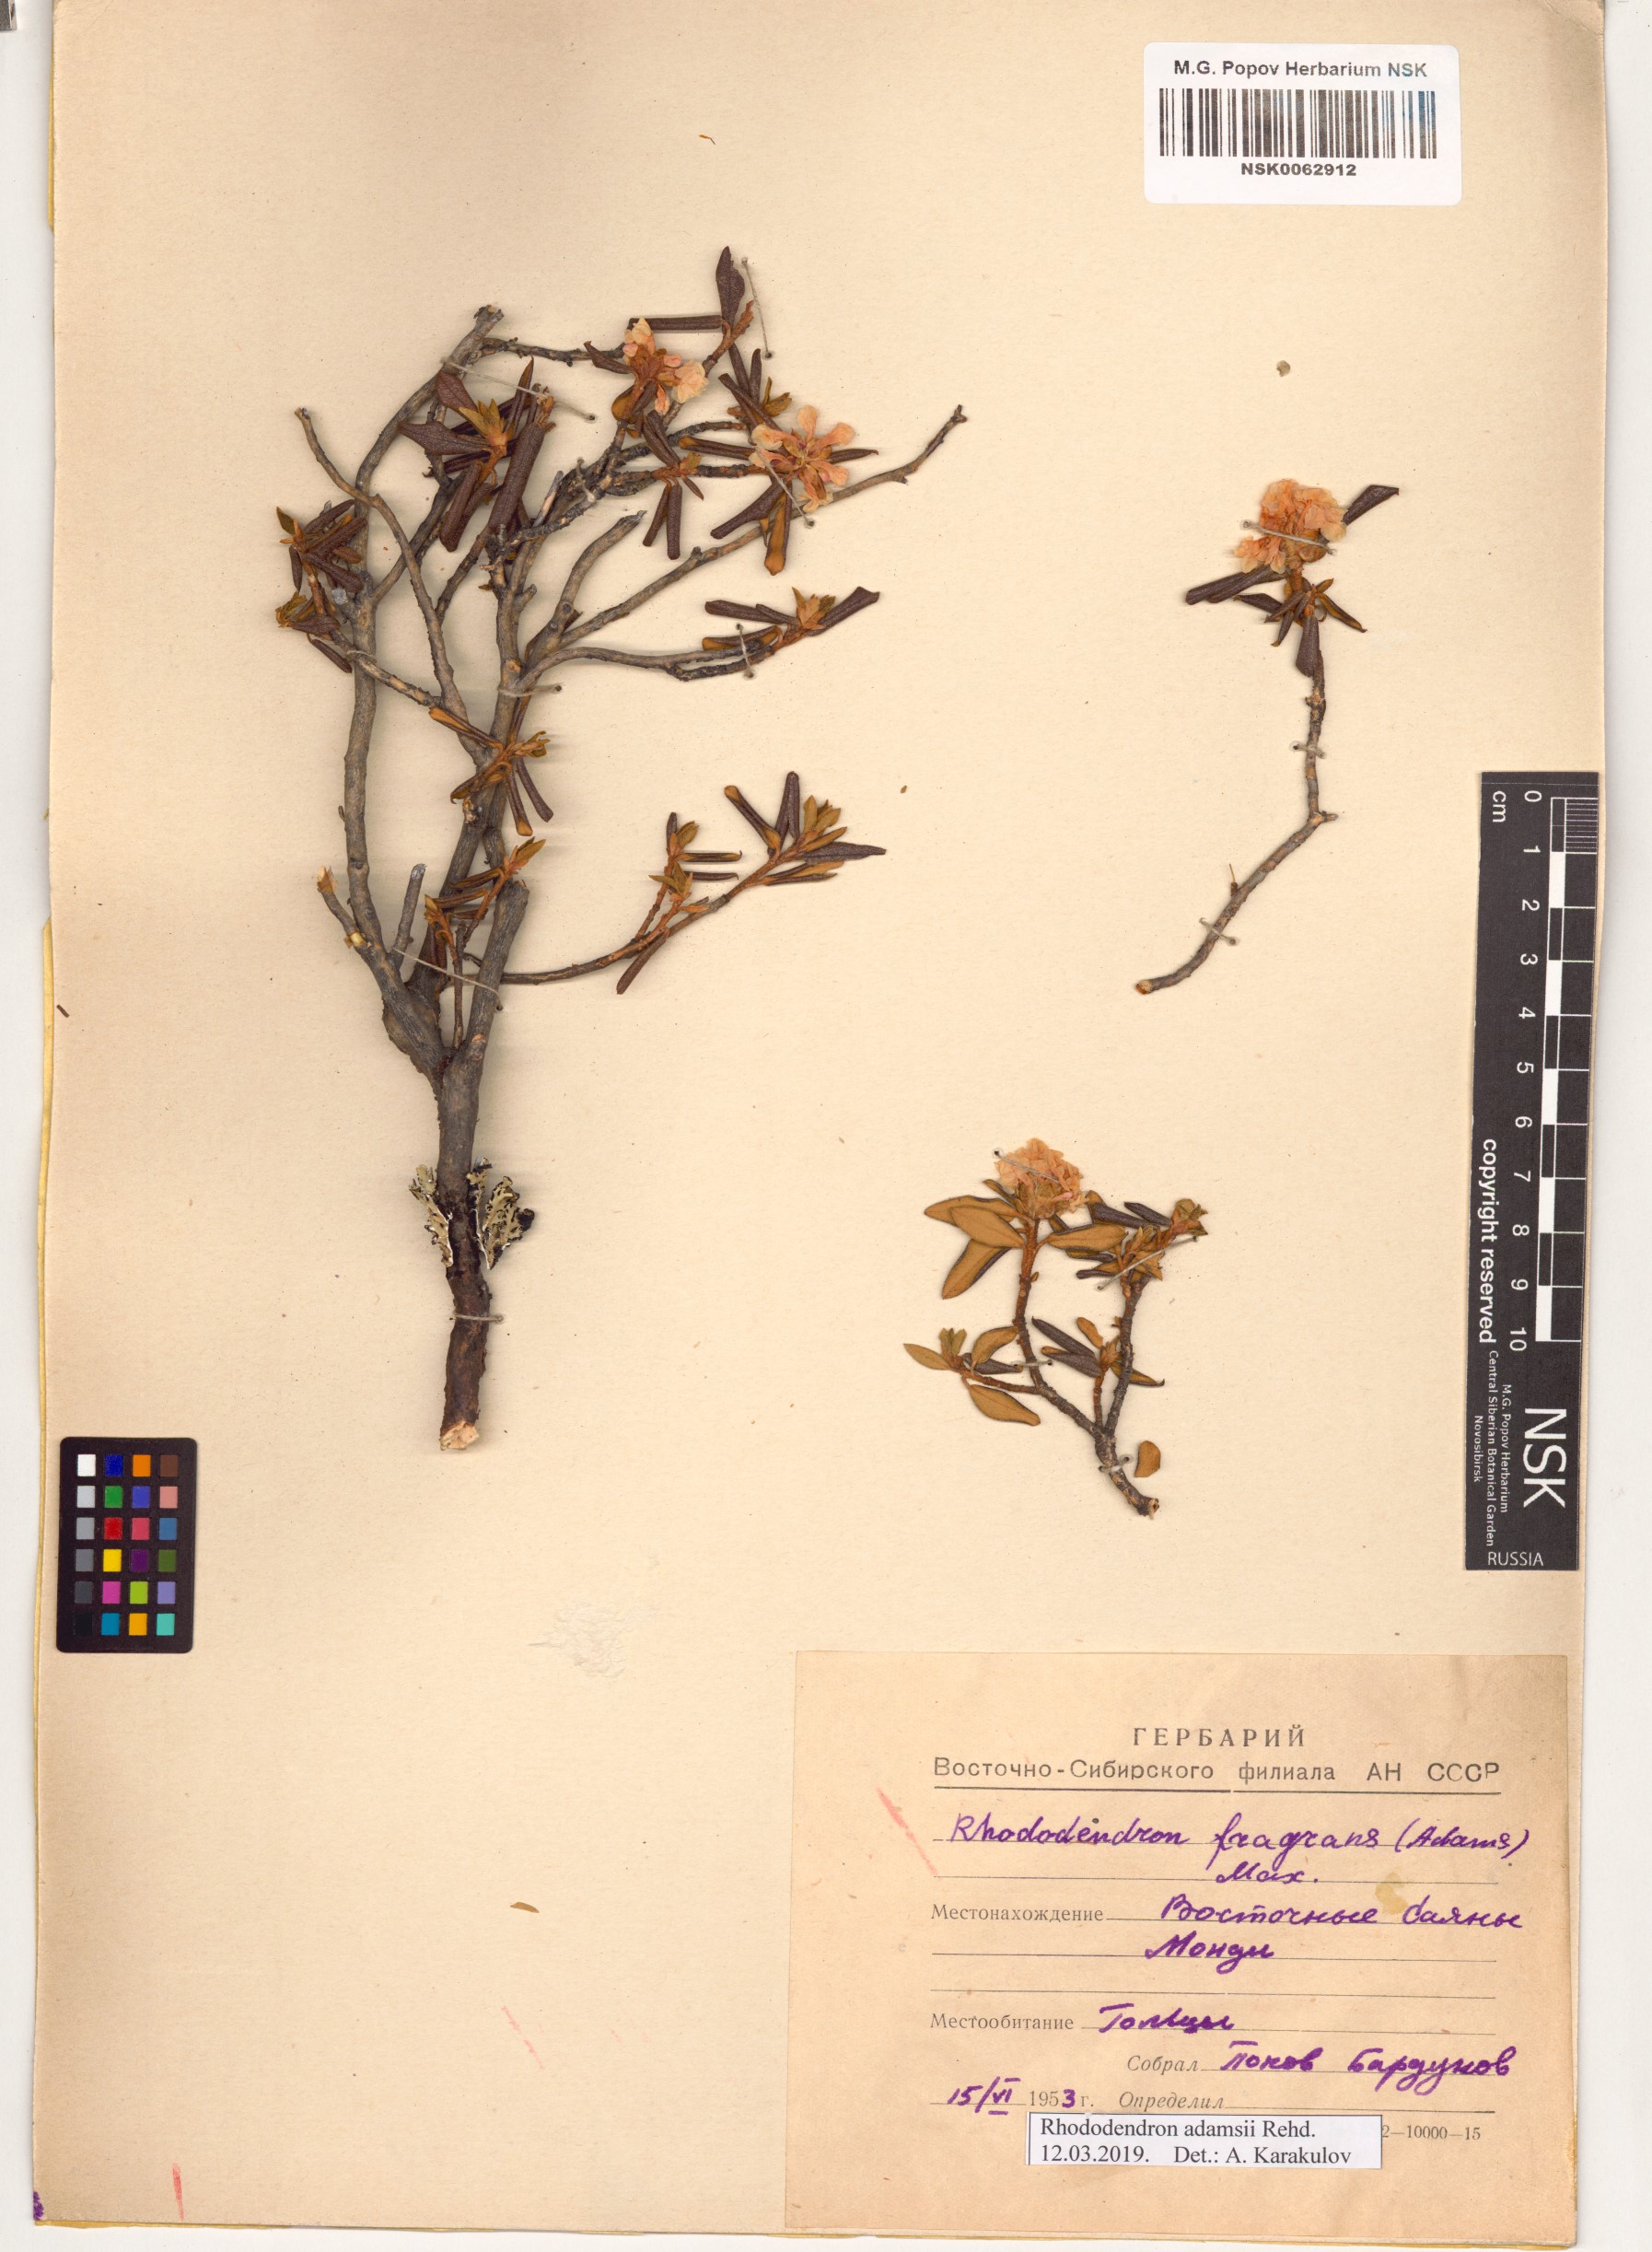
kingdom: Plantae
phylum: Tracheophyta
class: Magnoliopsida
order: Ericales
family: Ericaceae
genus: Rhododendron
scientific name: Rhododendron adamsii
